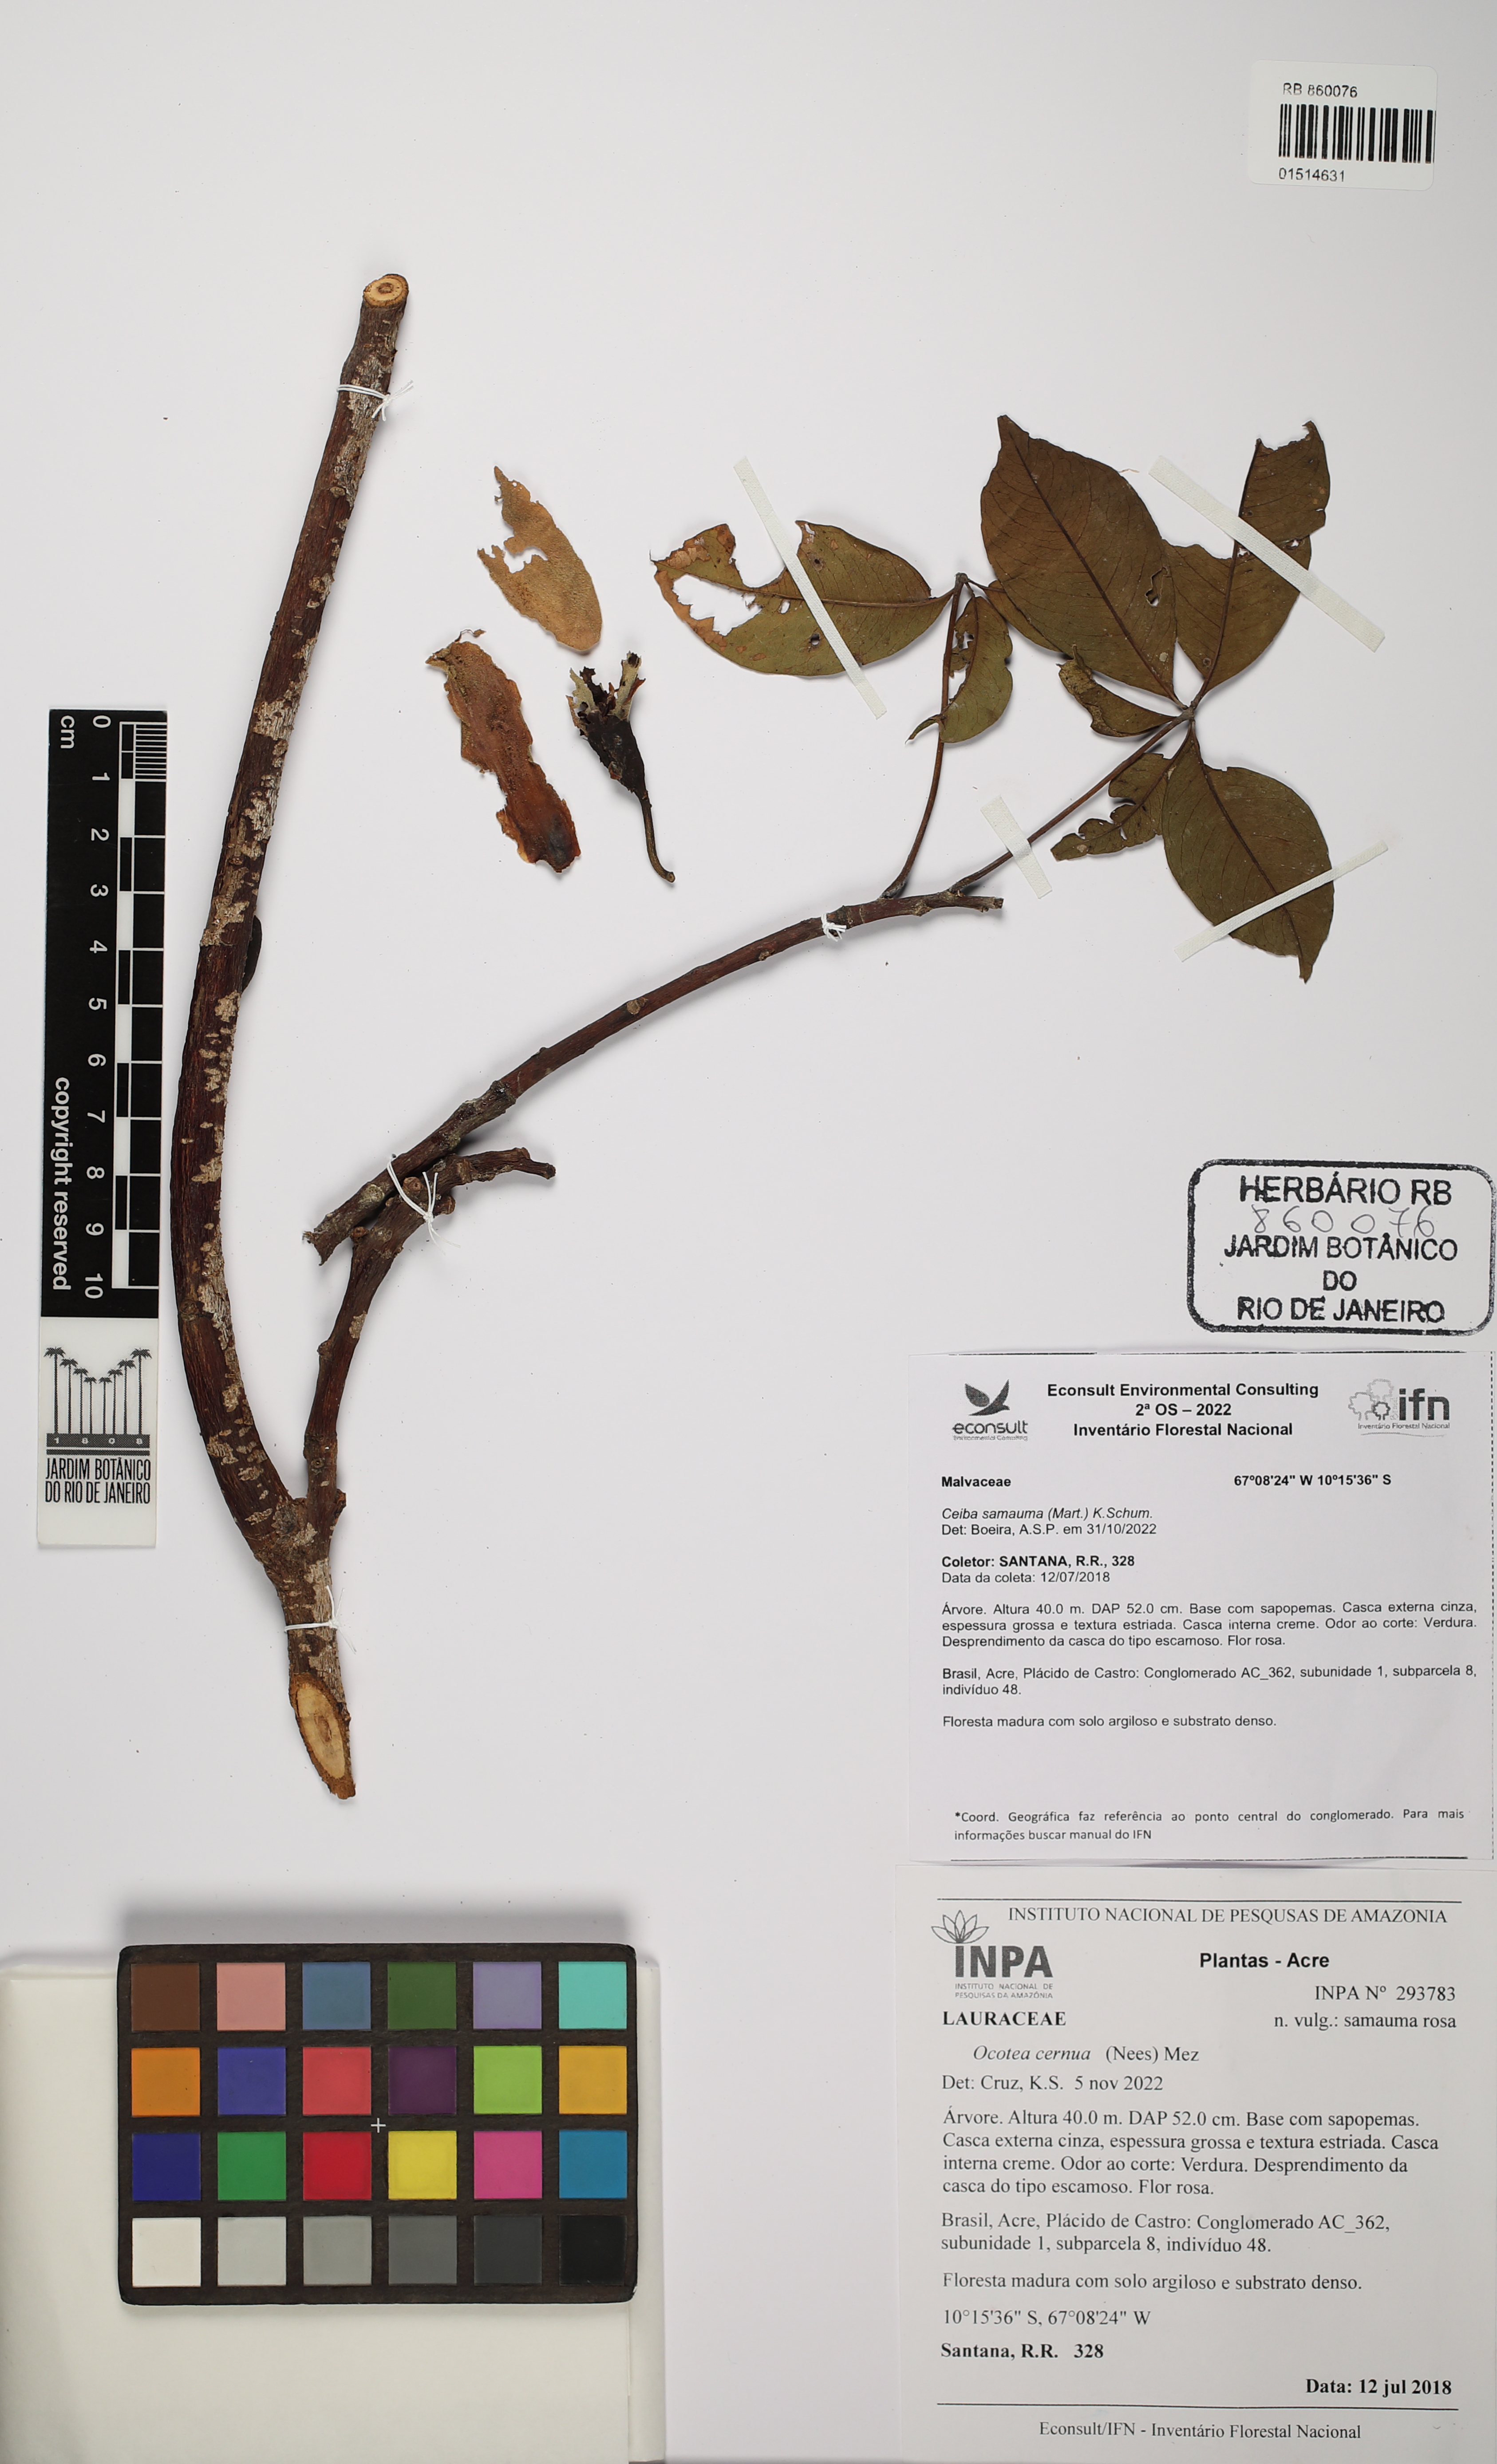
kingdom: Plantae
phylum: Tracheophyta
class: Magnoliopsida
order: Laurales
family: Lauraceae
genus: Ocotea
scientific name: Ocotea leptobotra
